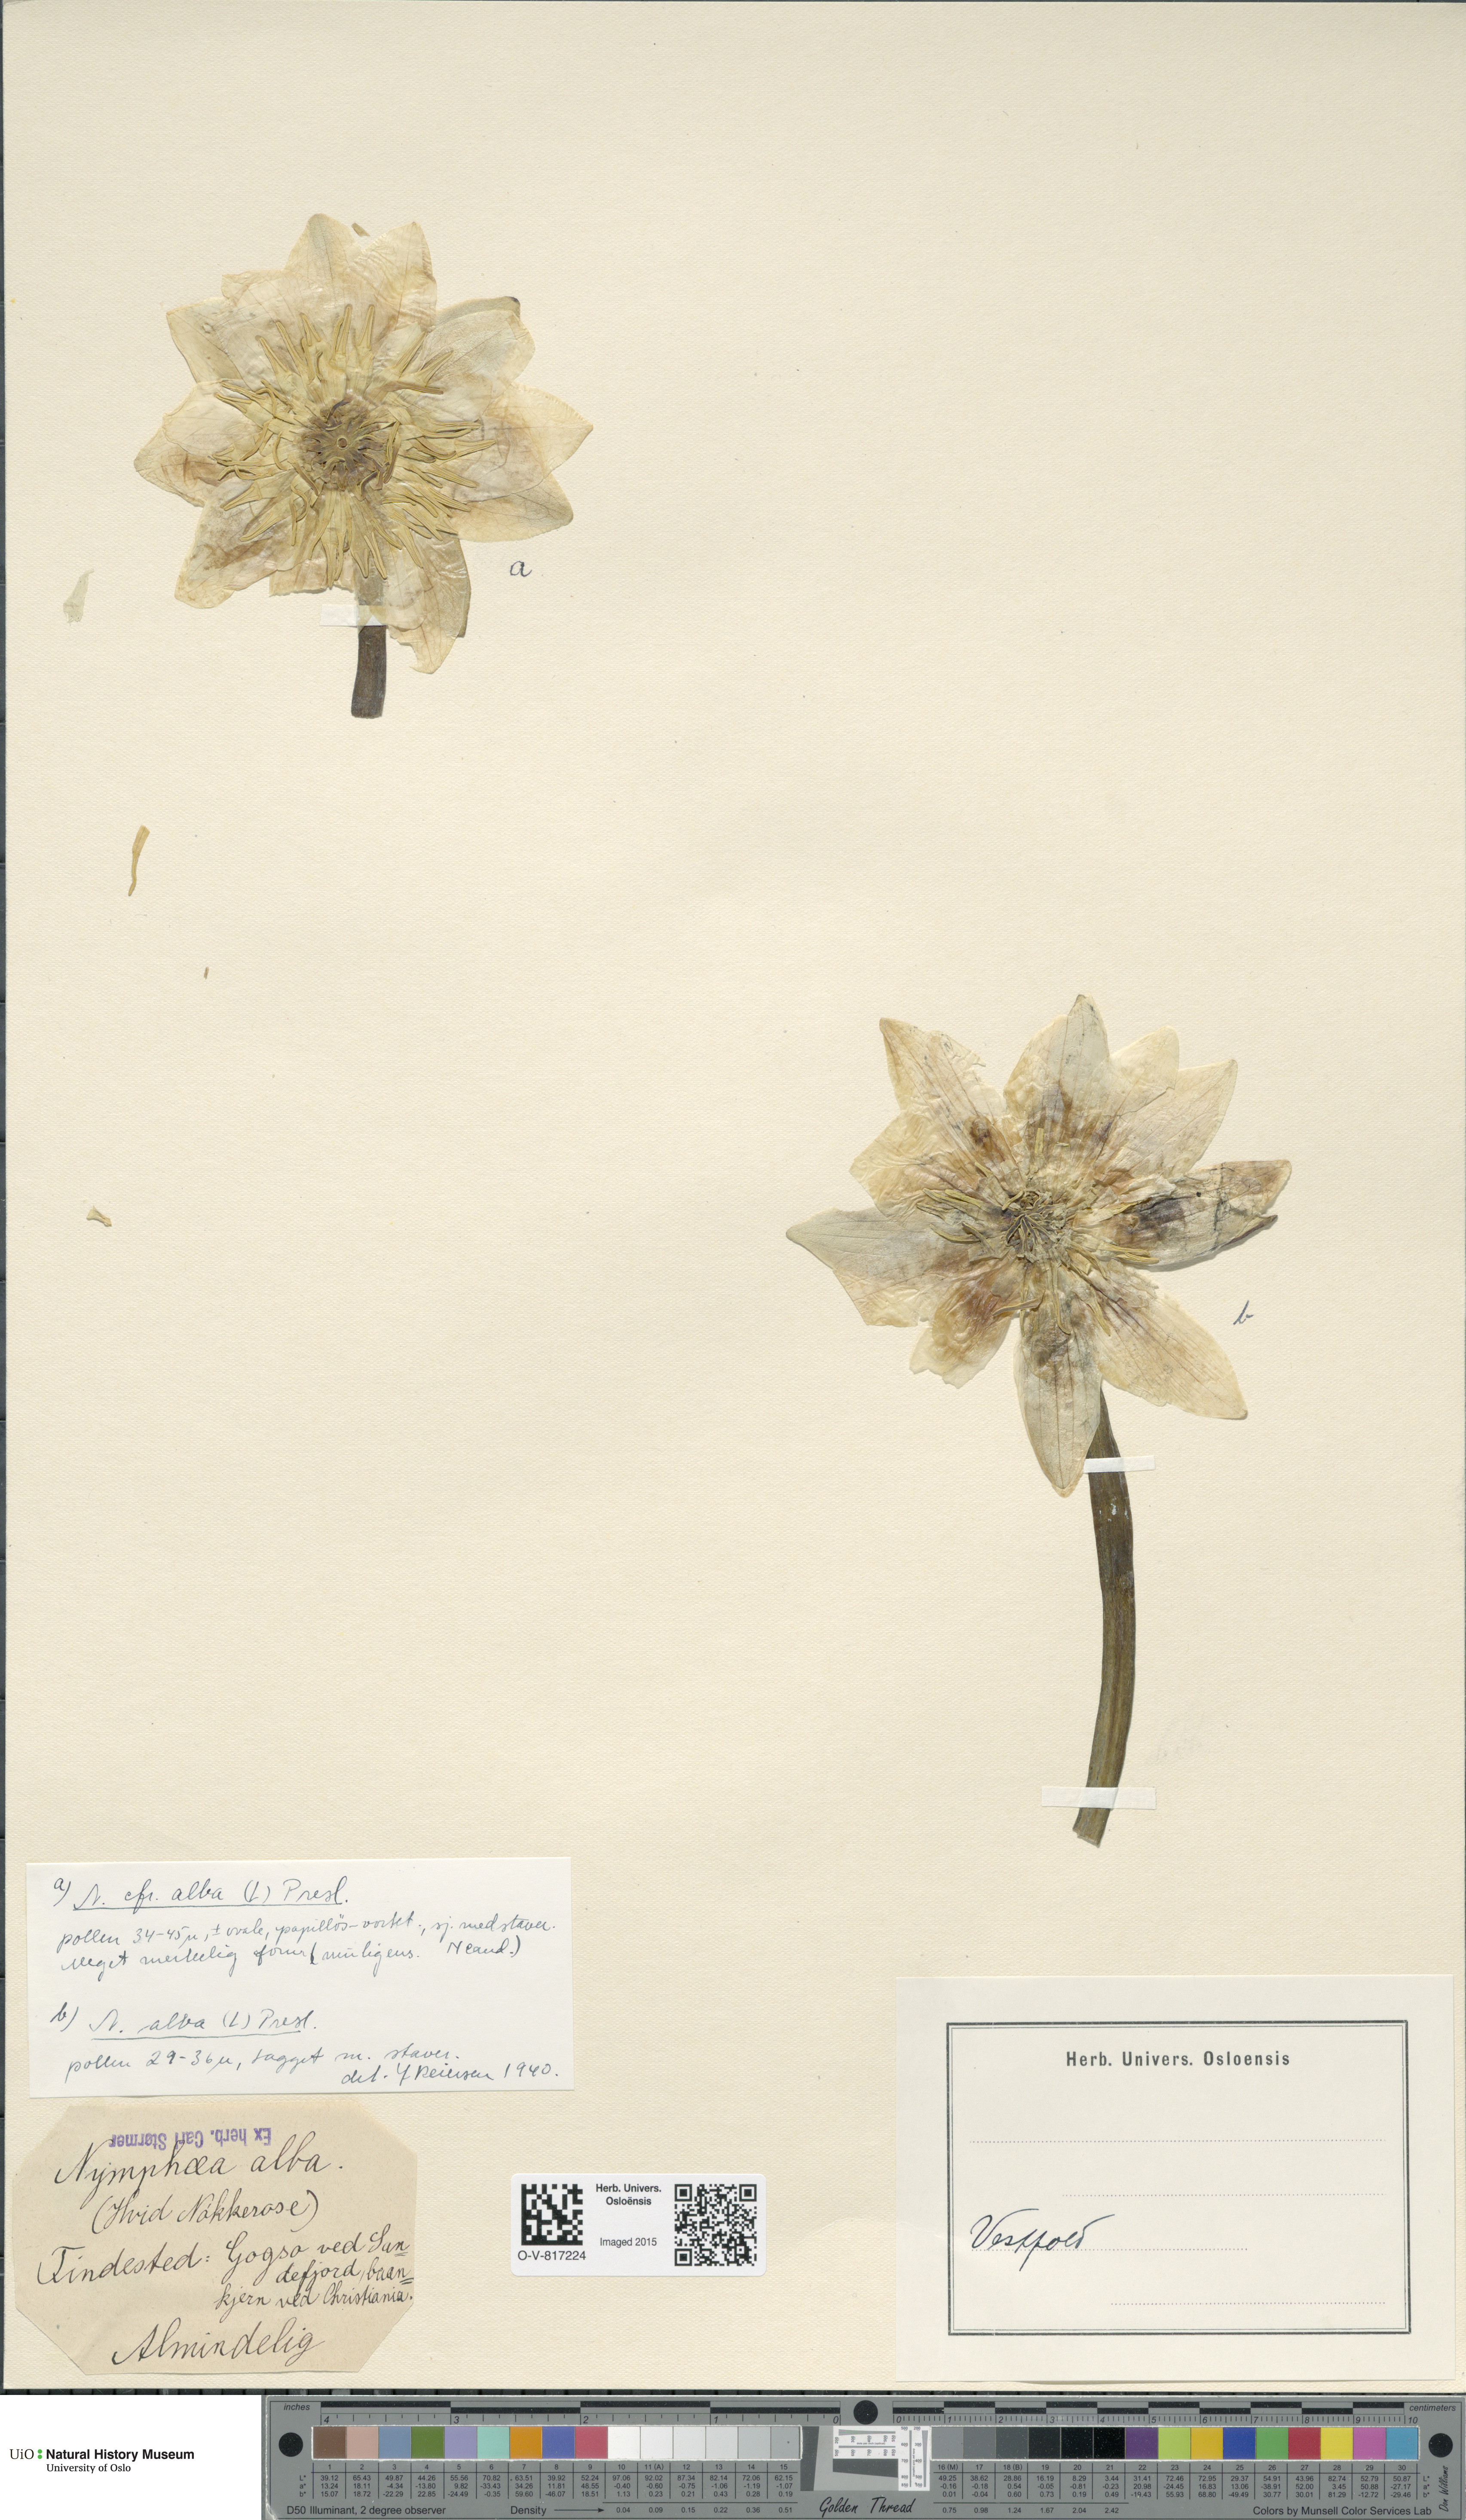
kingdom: Plantae
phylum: Tracheophyta
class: Magnoliopsida
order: Nymphaeales
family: Nymphaeaceae
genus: Nymphaea
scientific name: Nymphaea alba
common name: White water-lily
